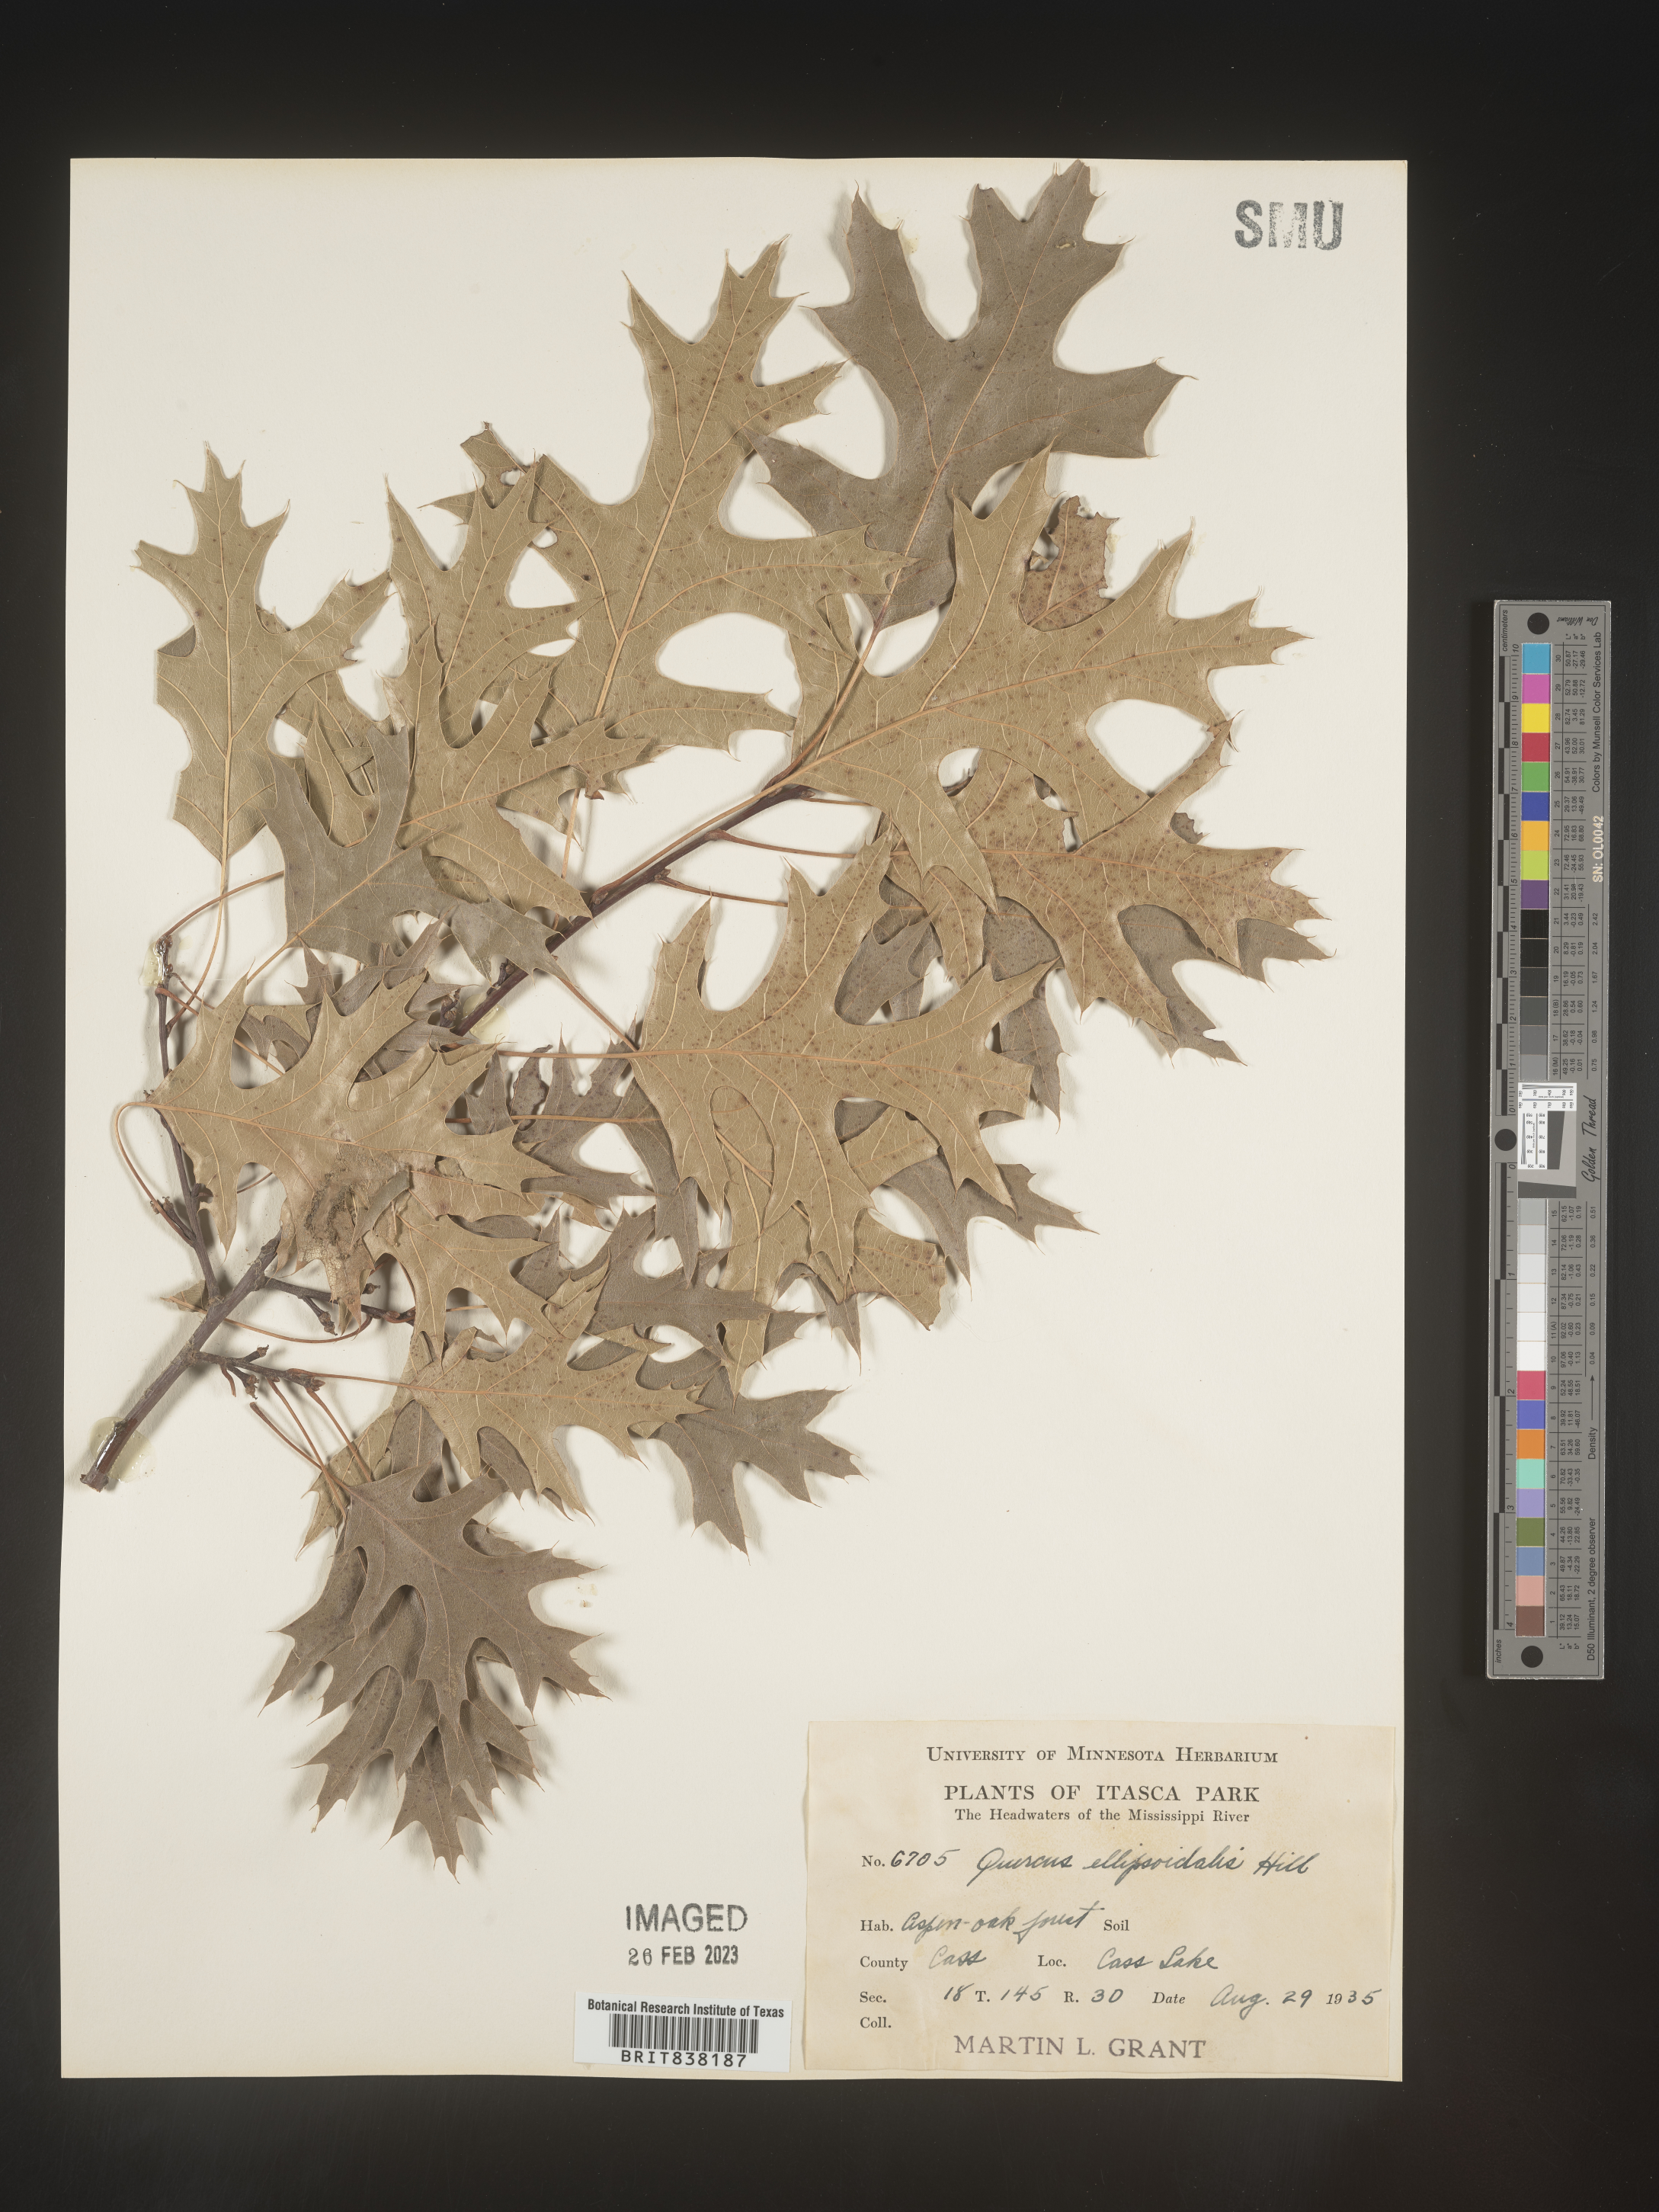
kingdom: Plantae
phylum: Tracheophyta
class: Magnoliopsida
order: Fagales
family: Fagaceae
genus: Quercus
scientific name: Quercus ellipsoidalis
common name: Hill's oak
